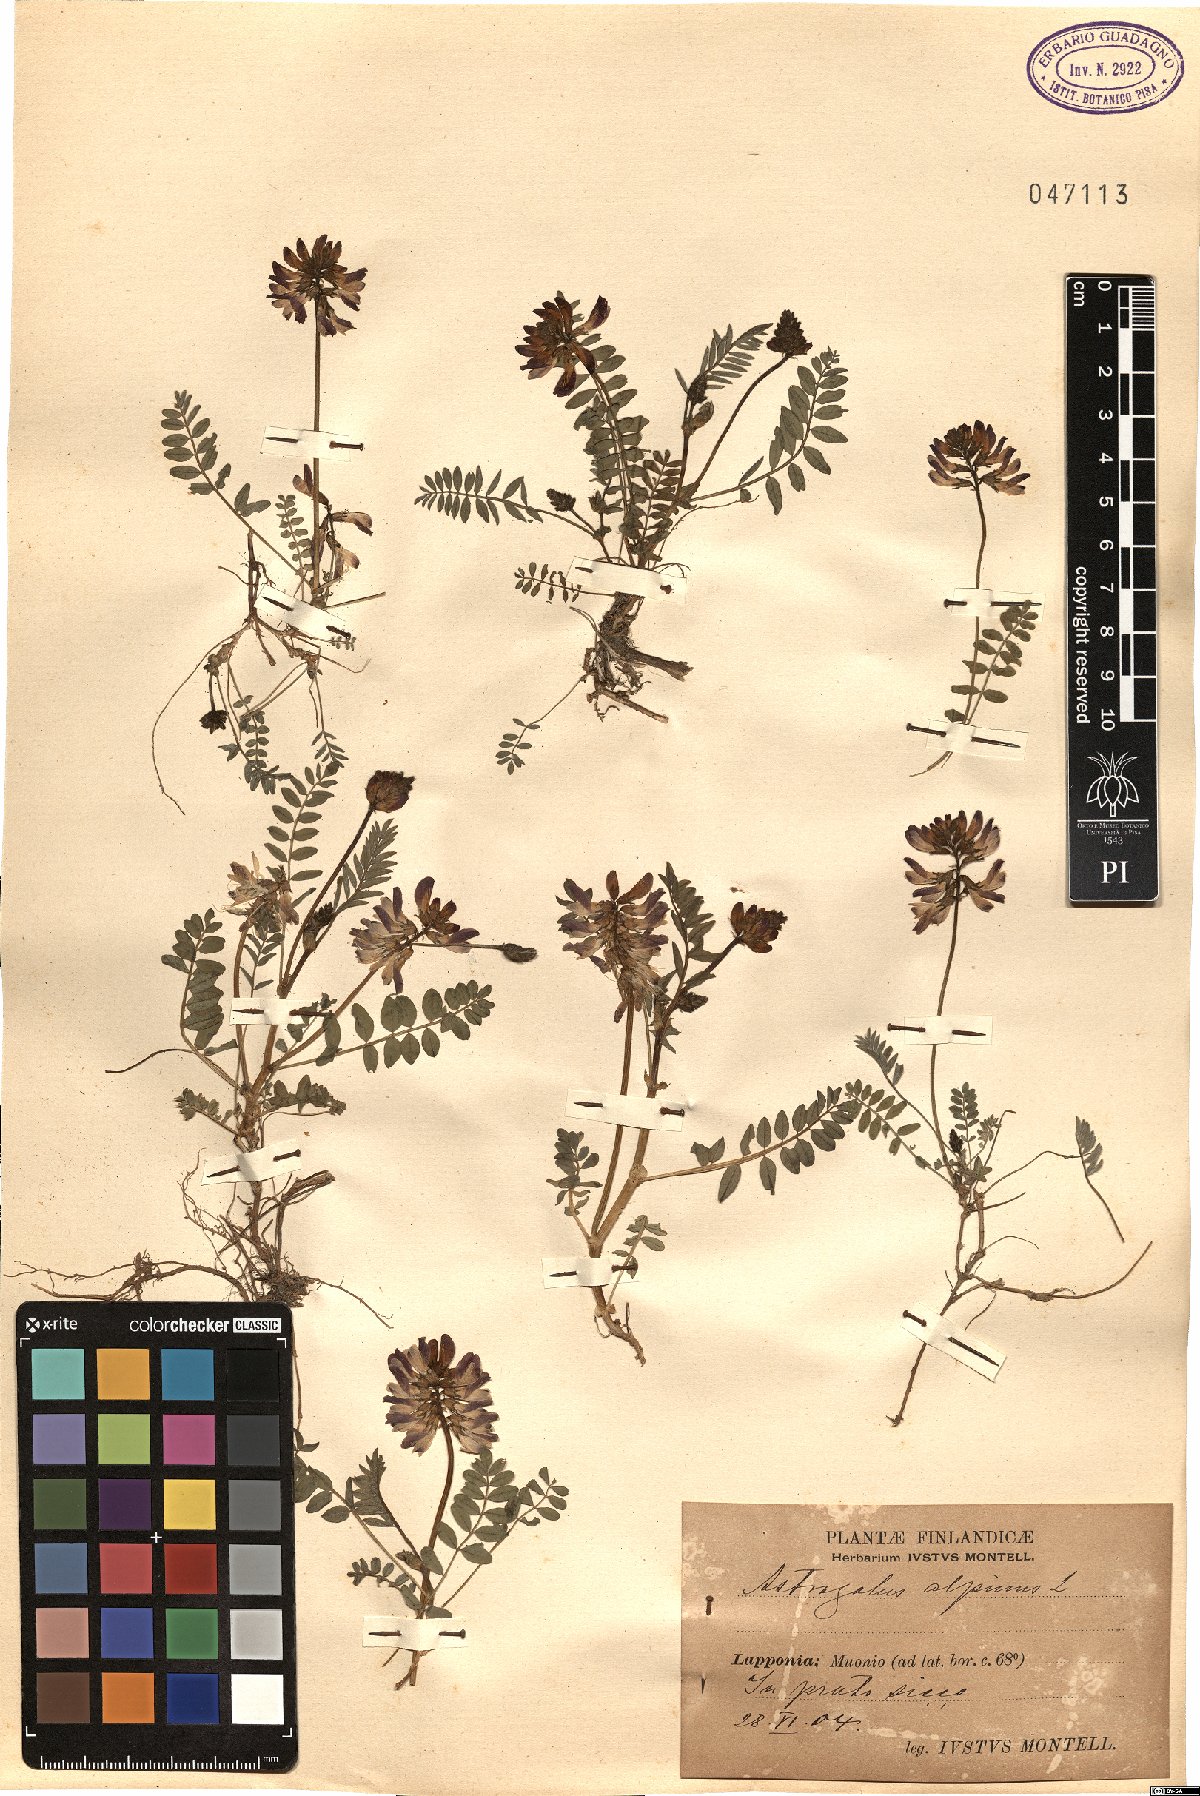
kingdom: Plantae
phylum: Tracheophyta
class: Magnoliopsida
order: Fabales
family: Fabaceae
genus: Astragalus
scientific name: Astragalus alpinus
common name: Alpine milk-vetch
